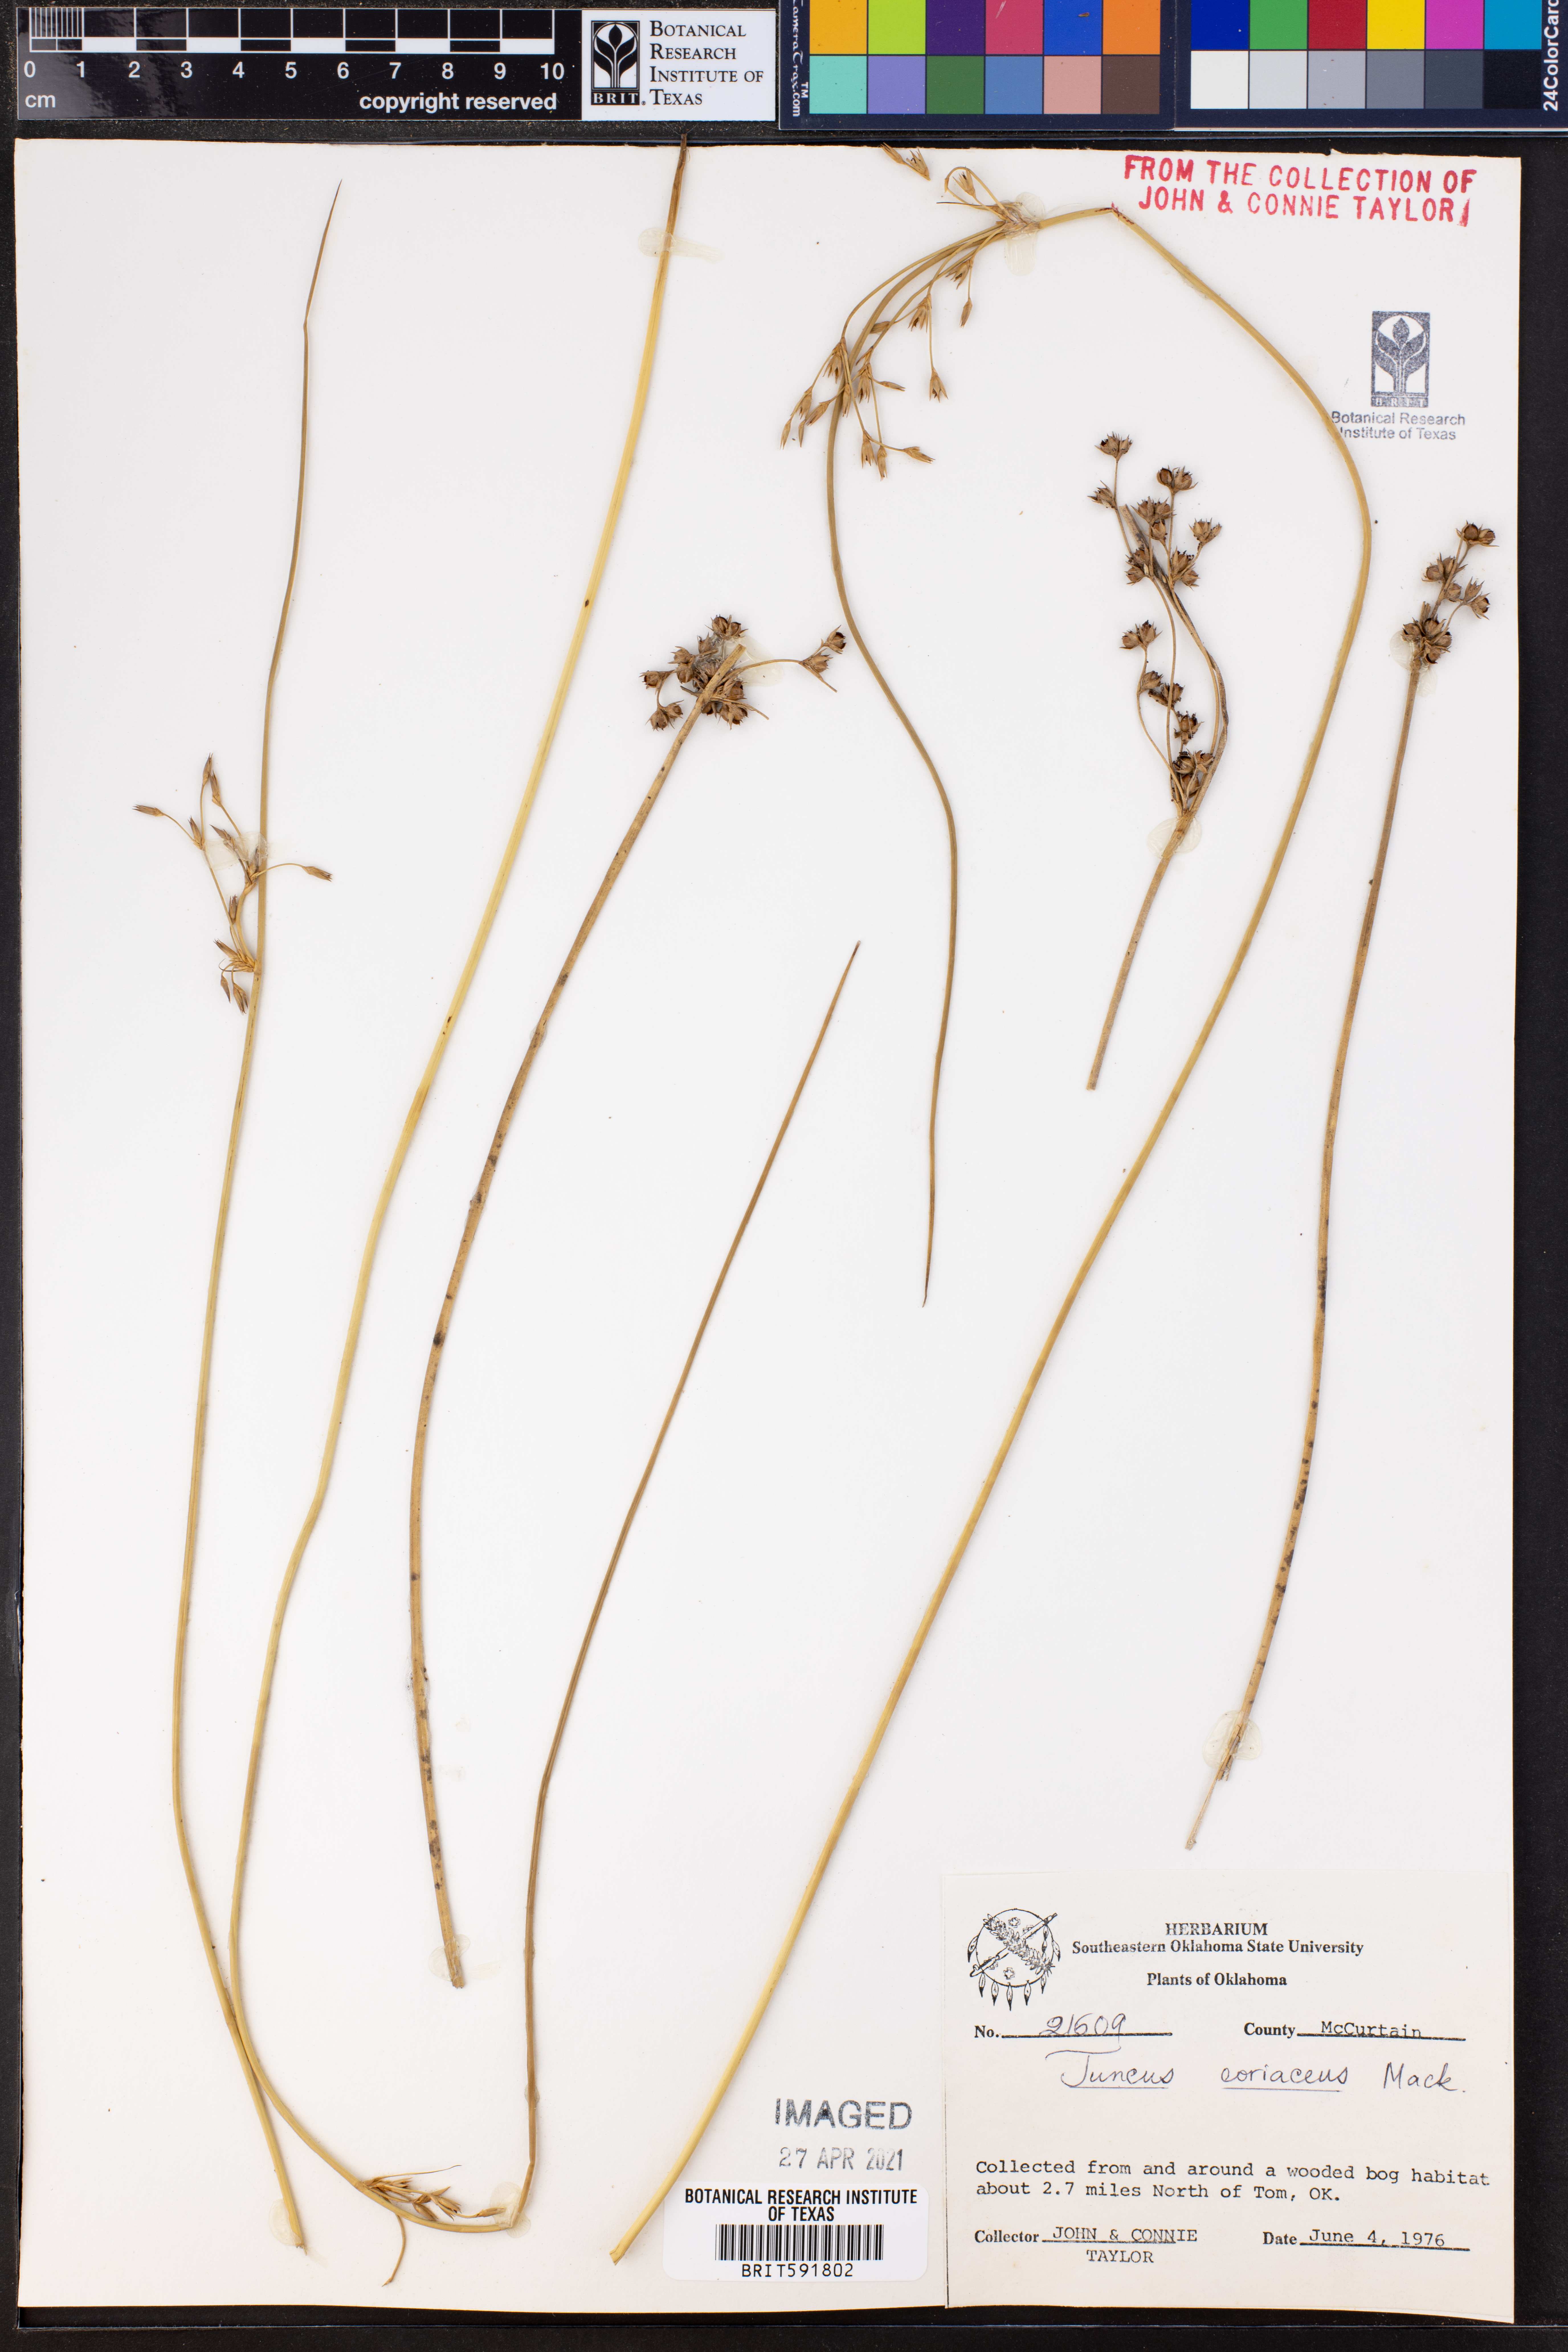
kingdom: Plantae
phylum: Tracheophyta
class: Liliopsida
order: Poales
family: Juncaceae
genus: Juncus
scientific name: Juncus coriaceus
